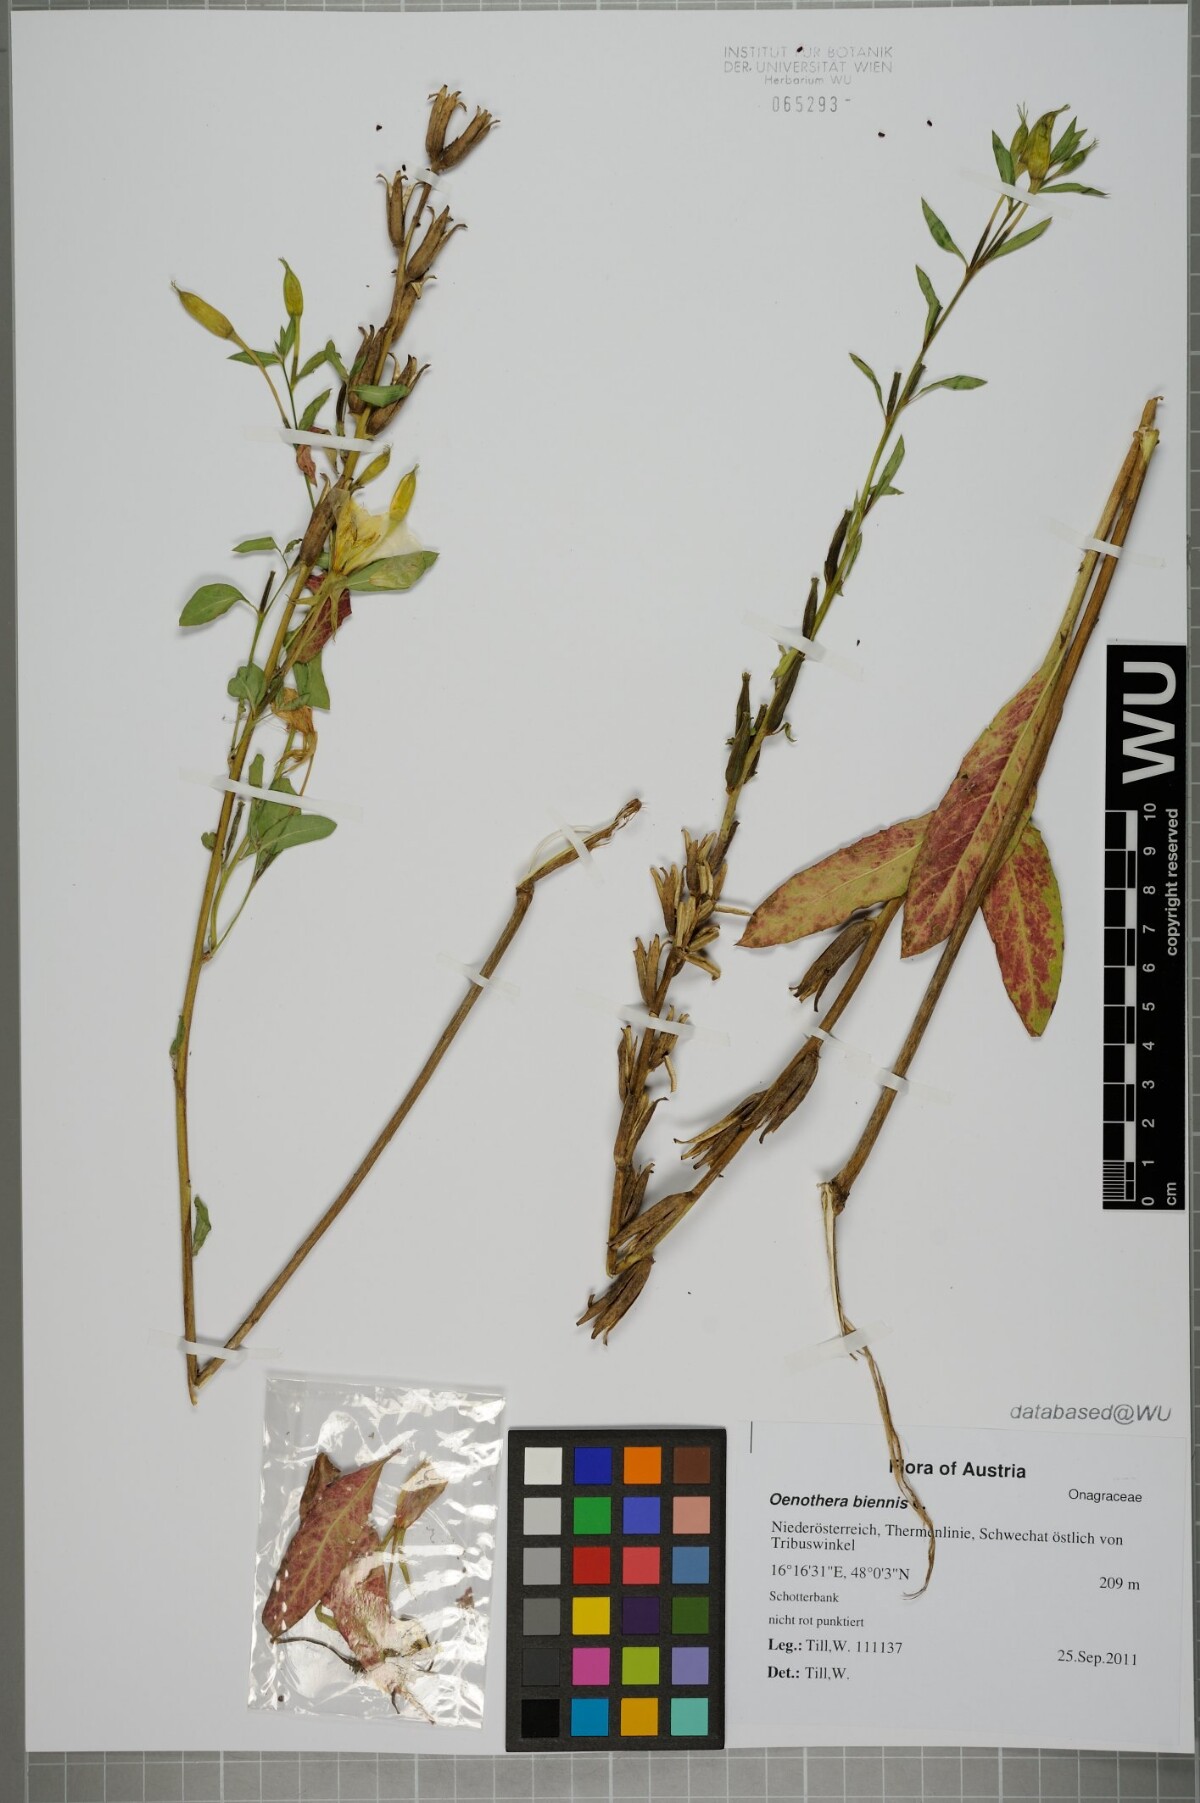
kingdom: Plantae
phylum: Tracheophyta
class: Magnoliopsida
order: Myrtales
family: Onagraceae
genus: Oenothera
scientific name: Oenothera biennis
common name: Common evening-primrose
